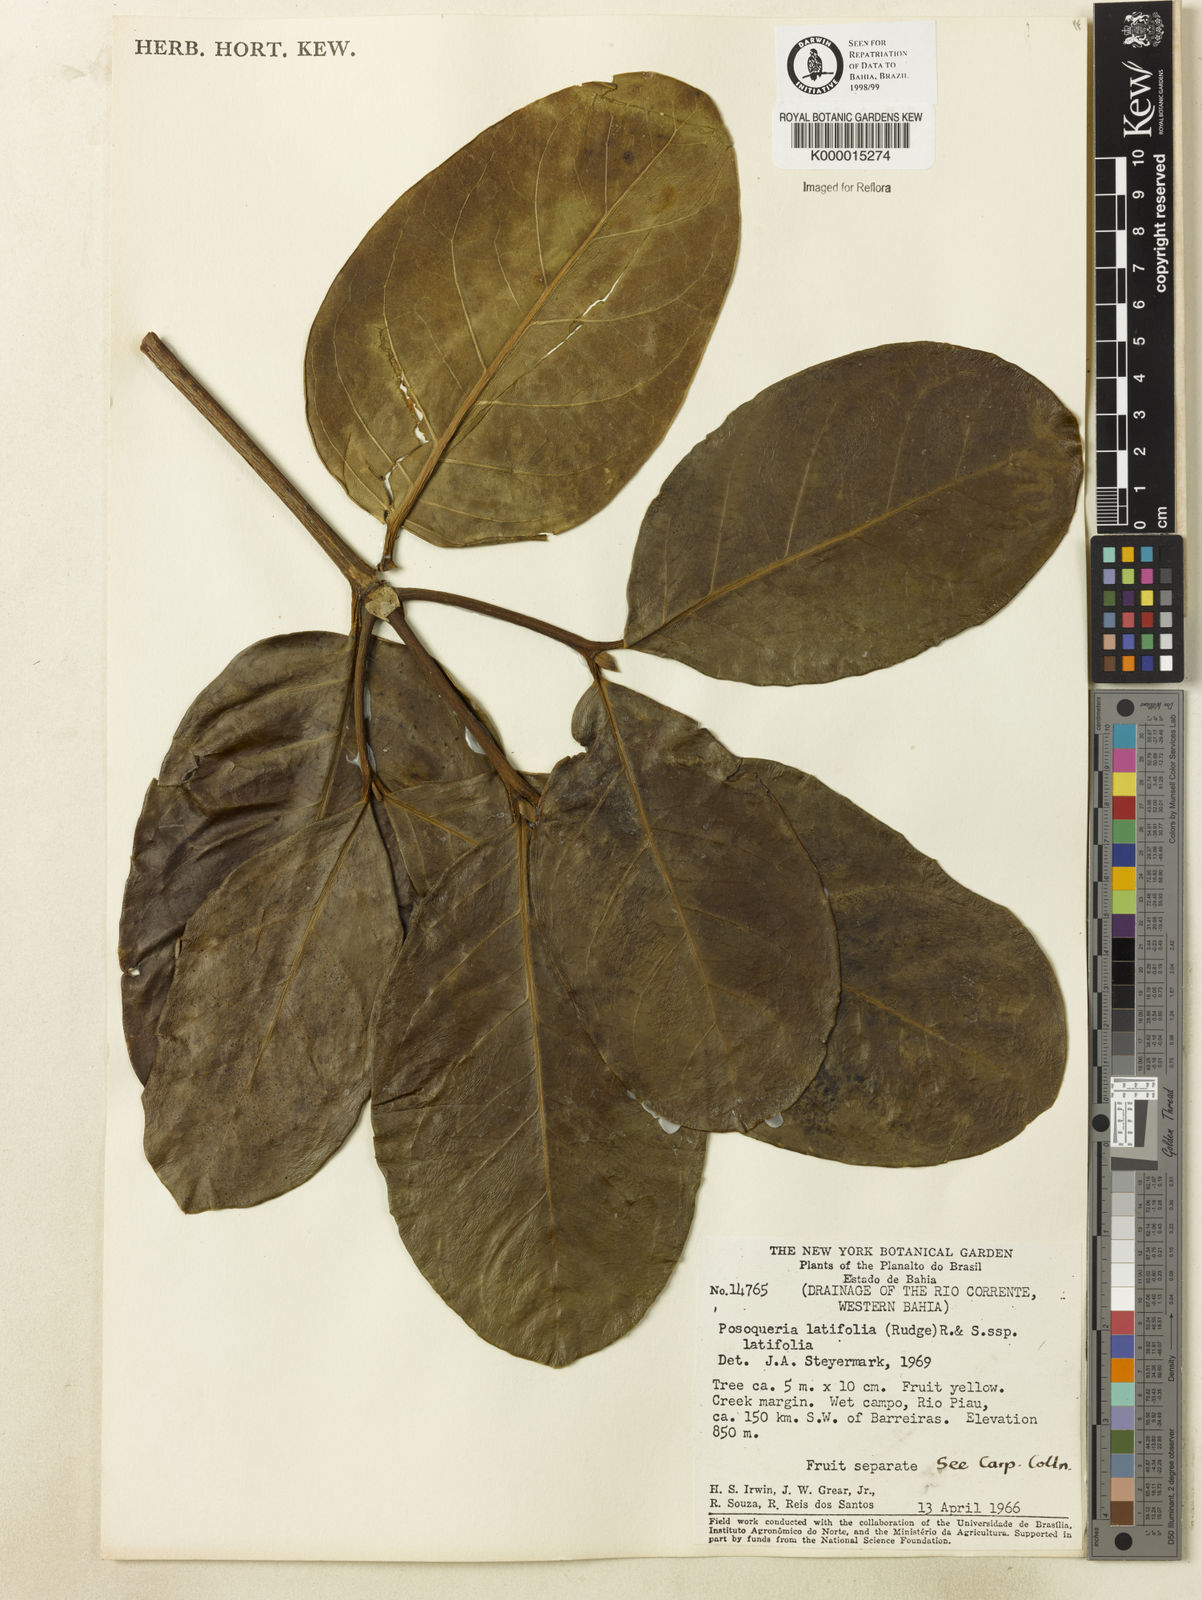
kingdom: Plantae
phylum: Tracheophyta
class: Magnoliopsida
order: Gentianales
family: Rubiaceae
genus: Posoqueria
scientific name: Posoqueria
